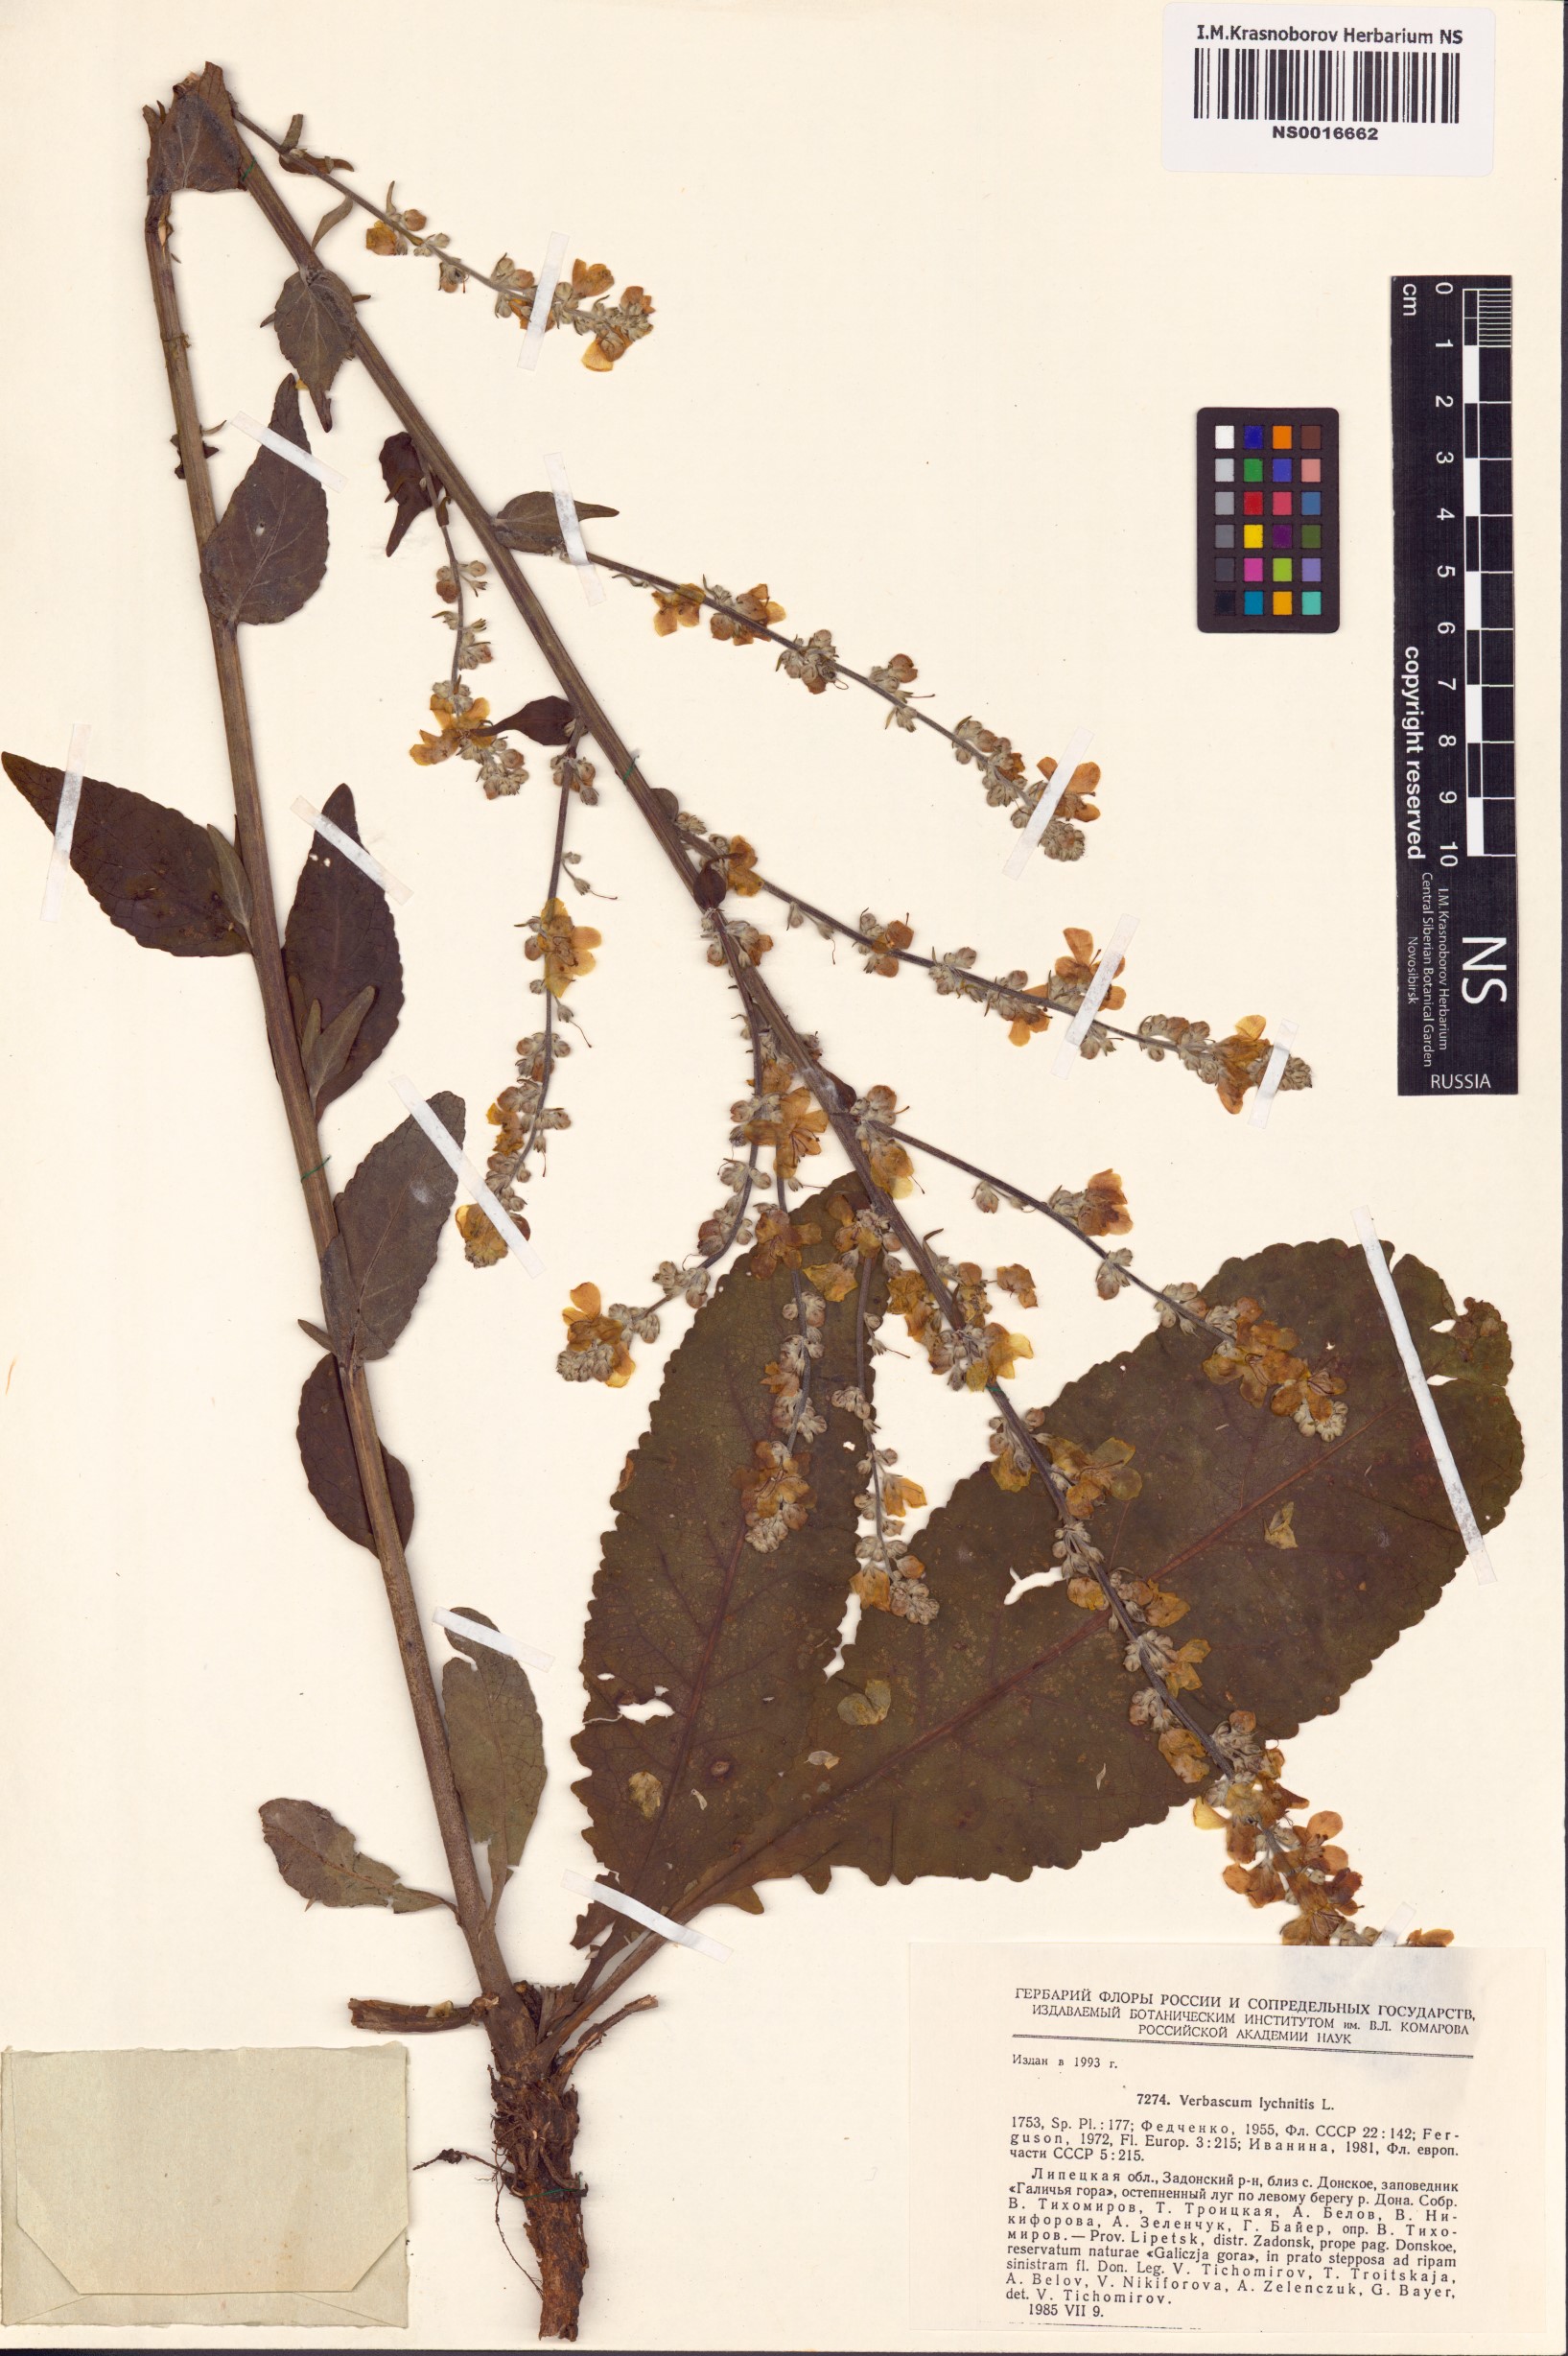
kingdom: Plantae
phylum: Tracheophyta
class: Magnoliopsida
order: Lamiales
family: Scrophulariaceae
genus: Verbascum
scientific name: Verbascum lychnitis
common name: White mullein
